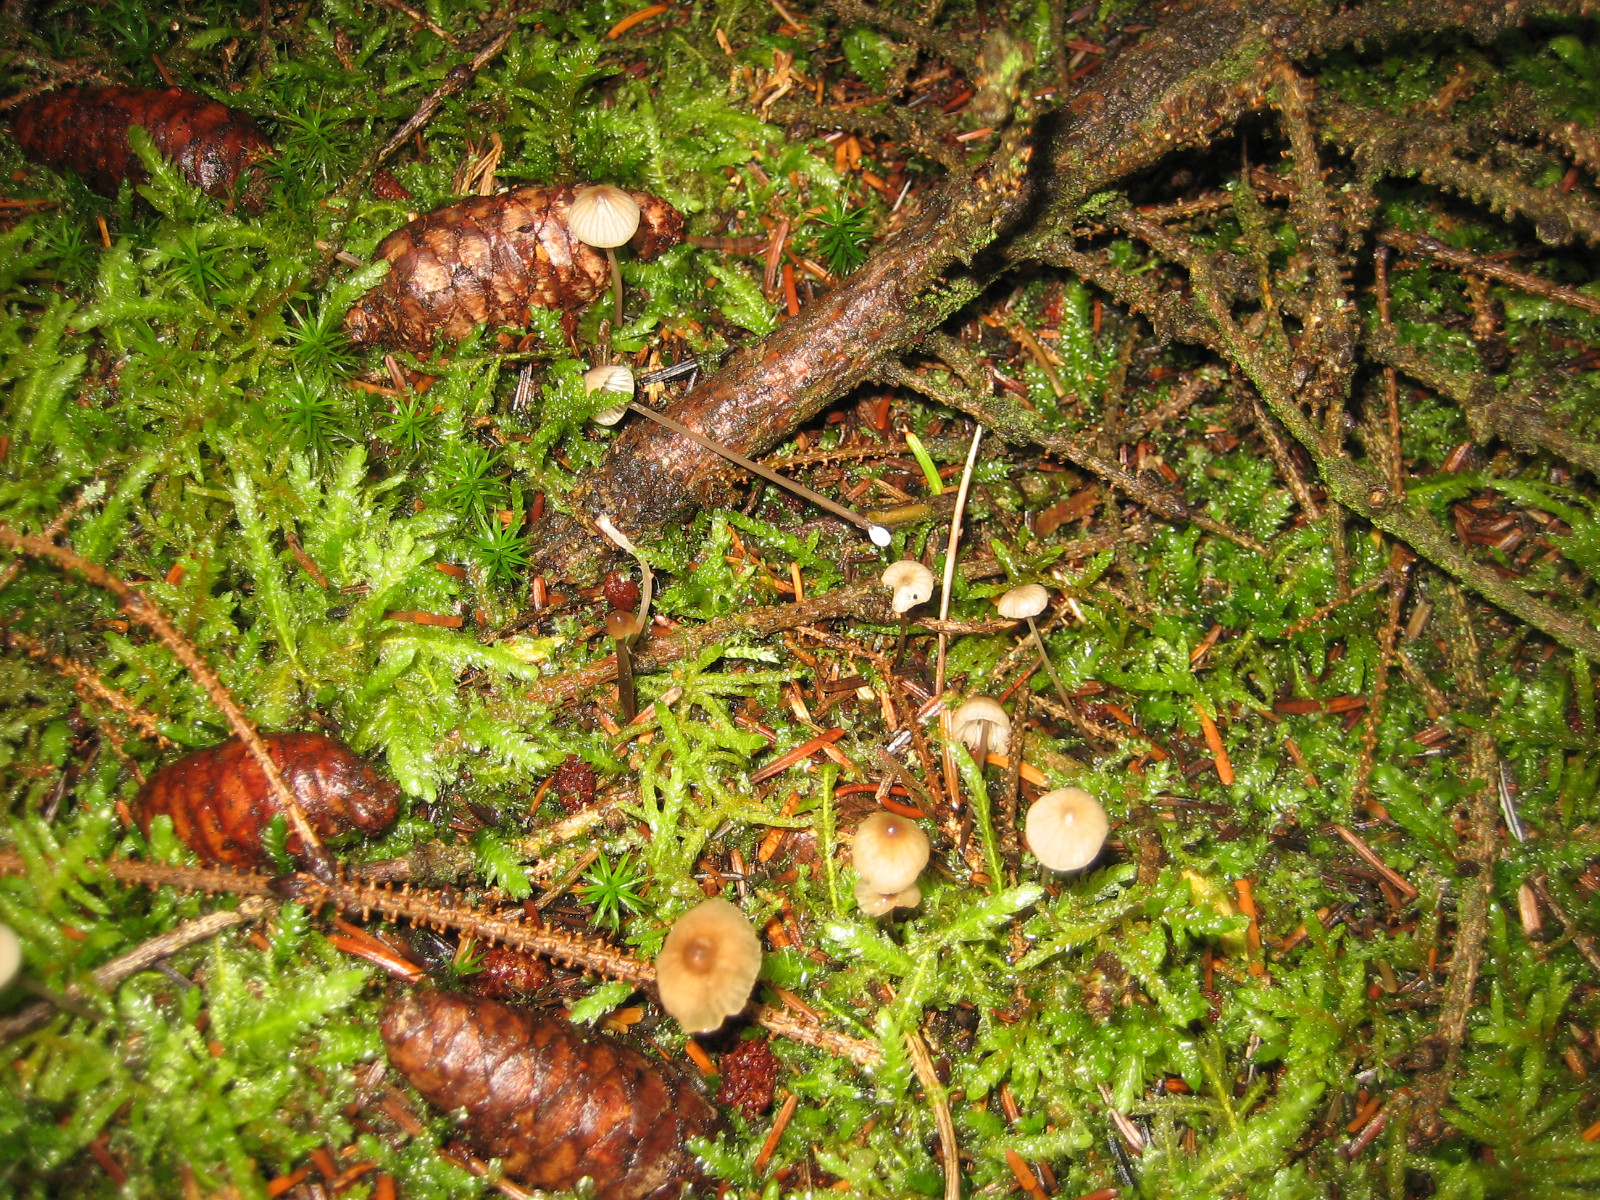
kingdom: Fungi
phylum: Basidiomycota
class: Agaricomycetes
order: Agaricales
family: Mycenaceae
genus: Mycena
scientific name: Mycena galopus
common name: hvidmælket huesvamp
